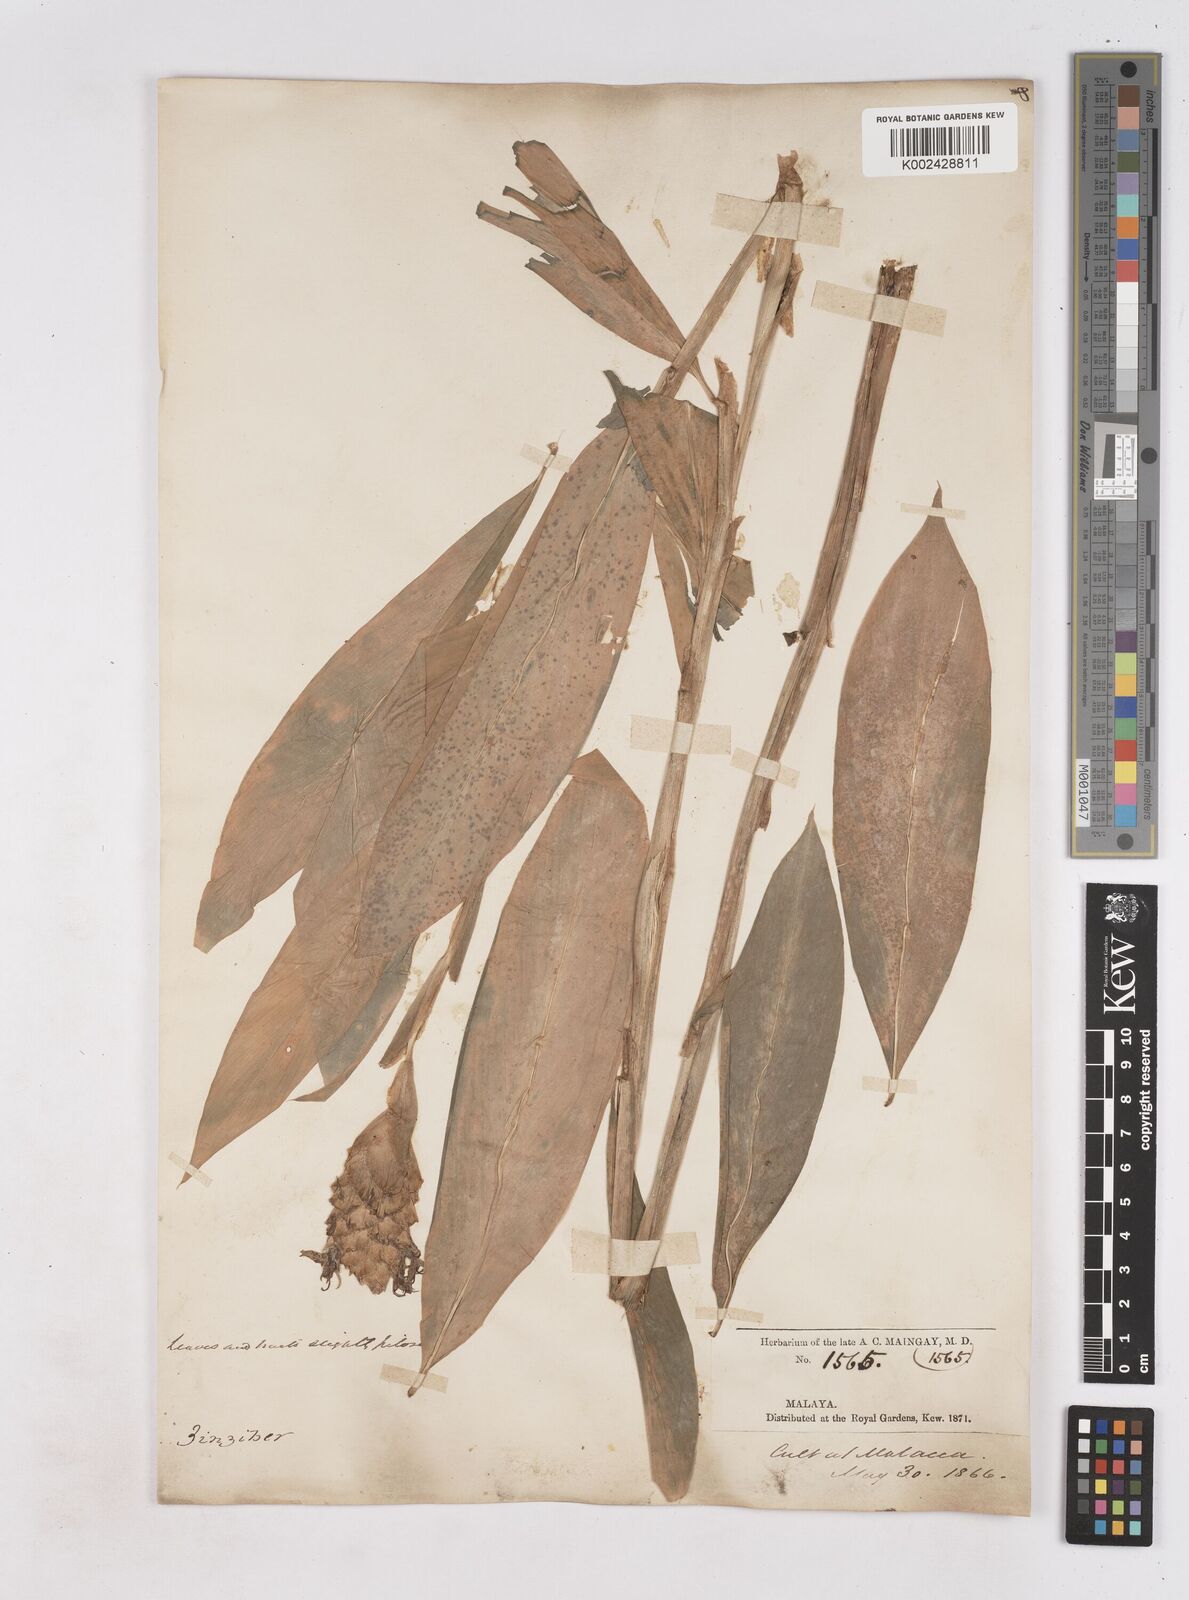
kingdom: Plantae
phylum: Tracheophyta
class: Liliopsida
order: Zingiberales
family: Zingiberaceae
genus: Zingiber
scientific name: Zingiber zerumbet
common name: Bitter ginger
